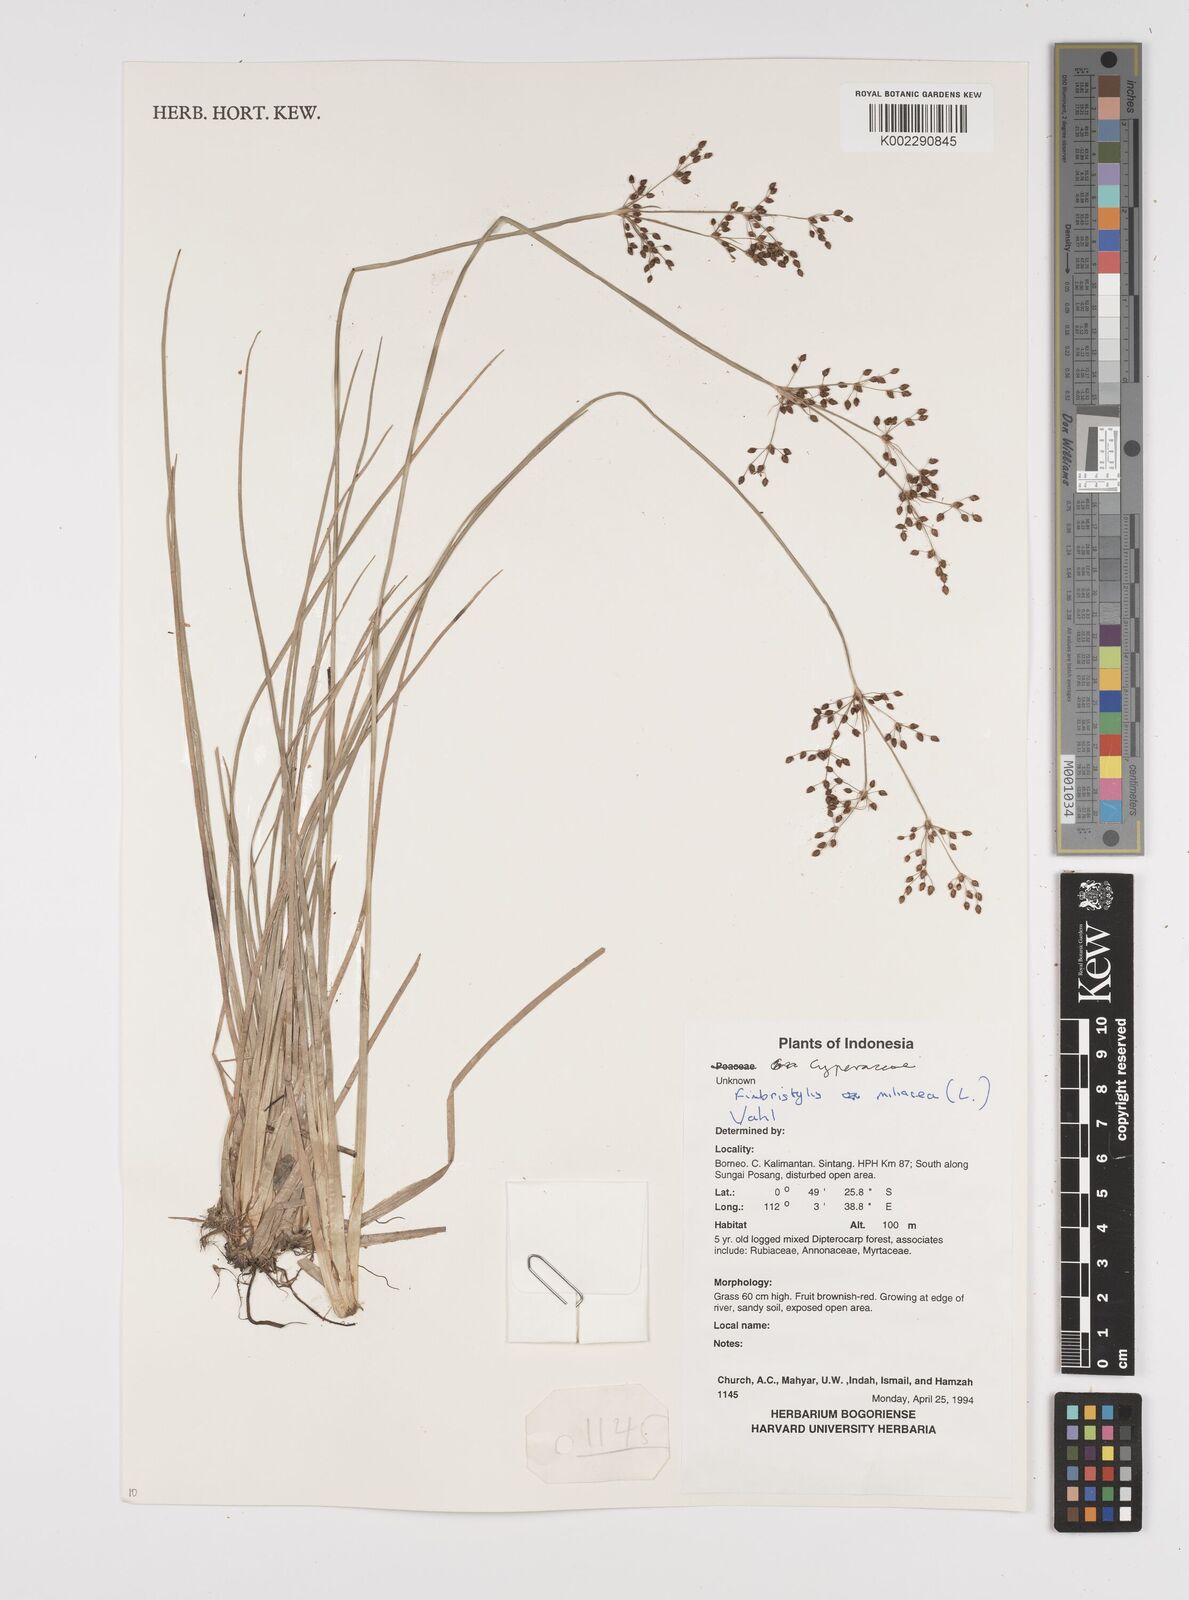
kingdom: Plantae
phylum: Tracheophyta
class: Liliopsida
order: Poales
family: Cyperaceae
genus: Fimbristylis
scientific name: Fimbristylis littoralis
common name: Fimbry
